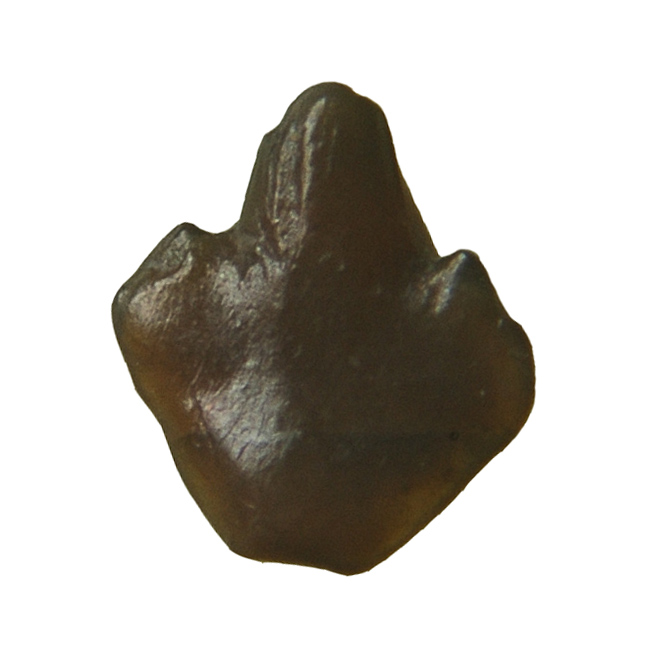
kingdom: Animalia
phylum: Chordata
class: Elasmobranchii
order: Orectolobiformes
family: Brachaeluridae
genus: Palaeobrachaelurus
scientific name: Palaeobrachaelurus mussetti
